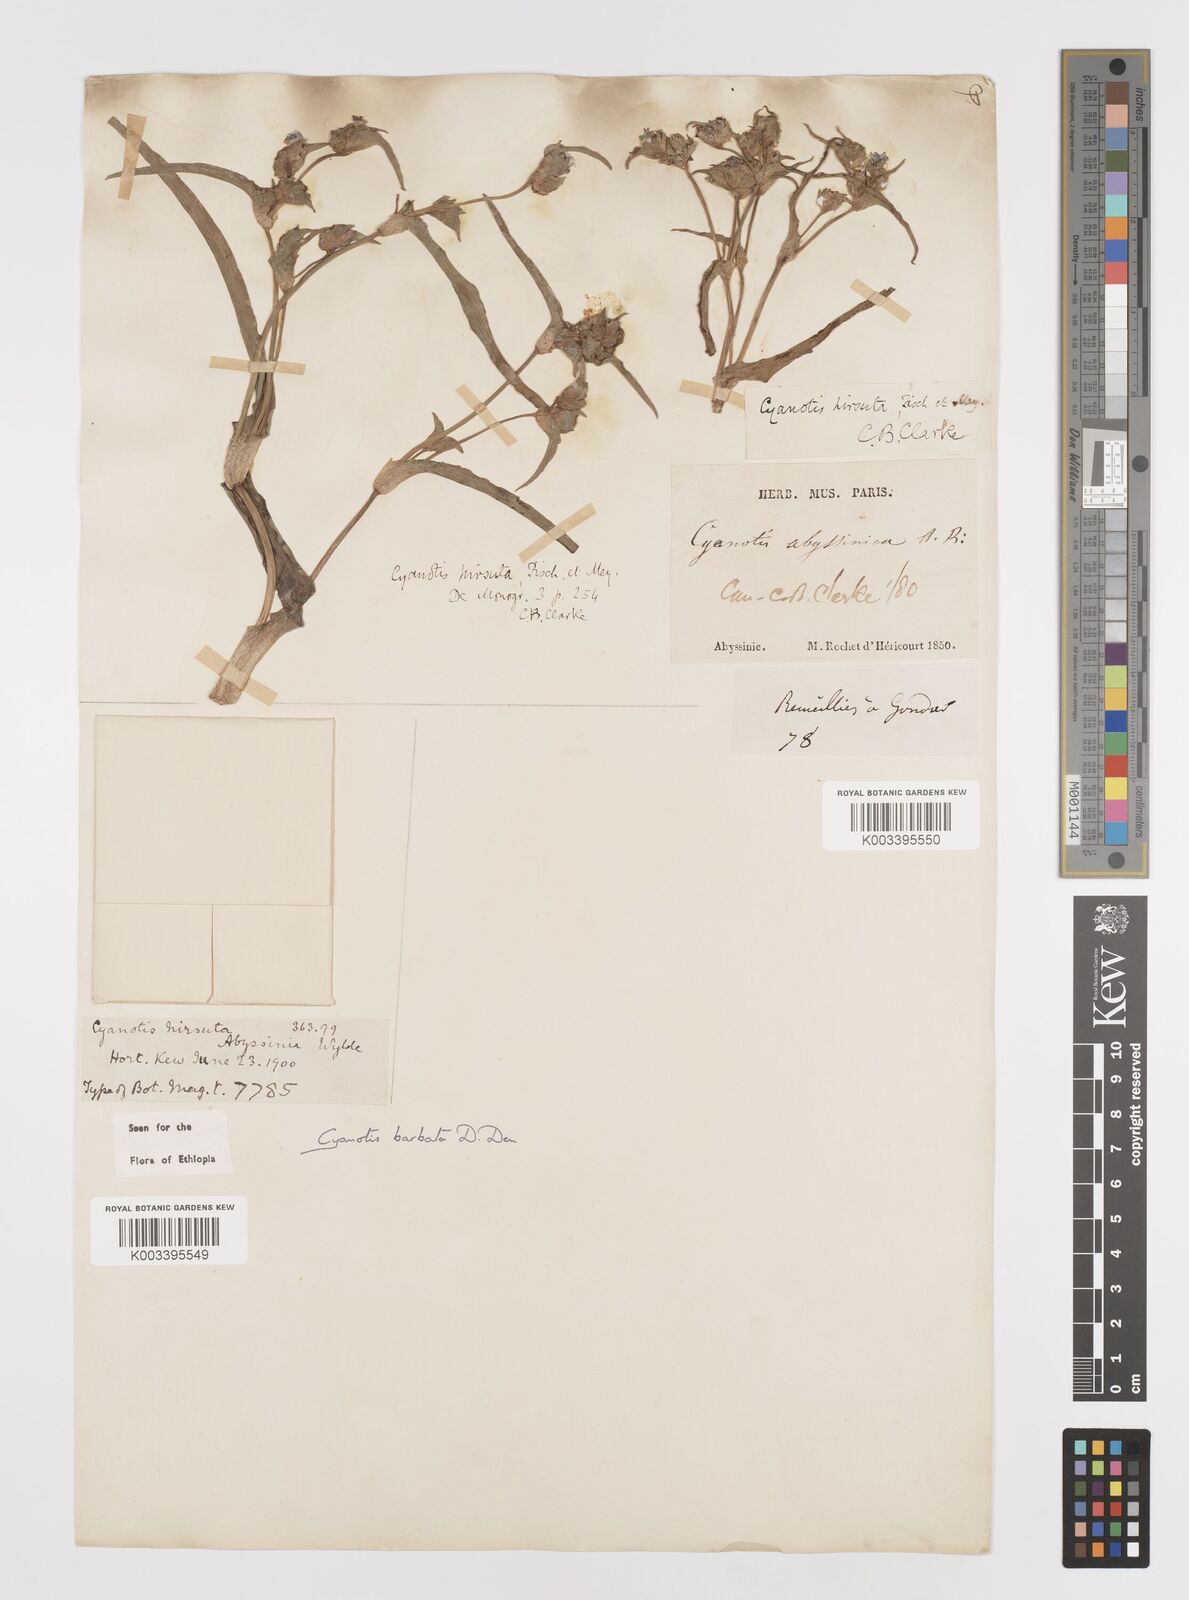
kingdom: Plantae
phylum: Tracheophyta
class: Liliopsida
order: Commelinales
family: Commelinaceae
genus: Cyanotis
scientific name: Cyanotis vaga
